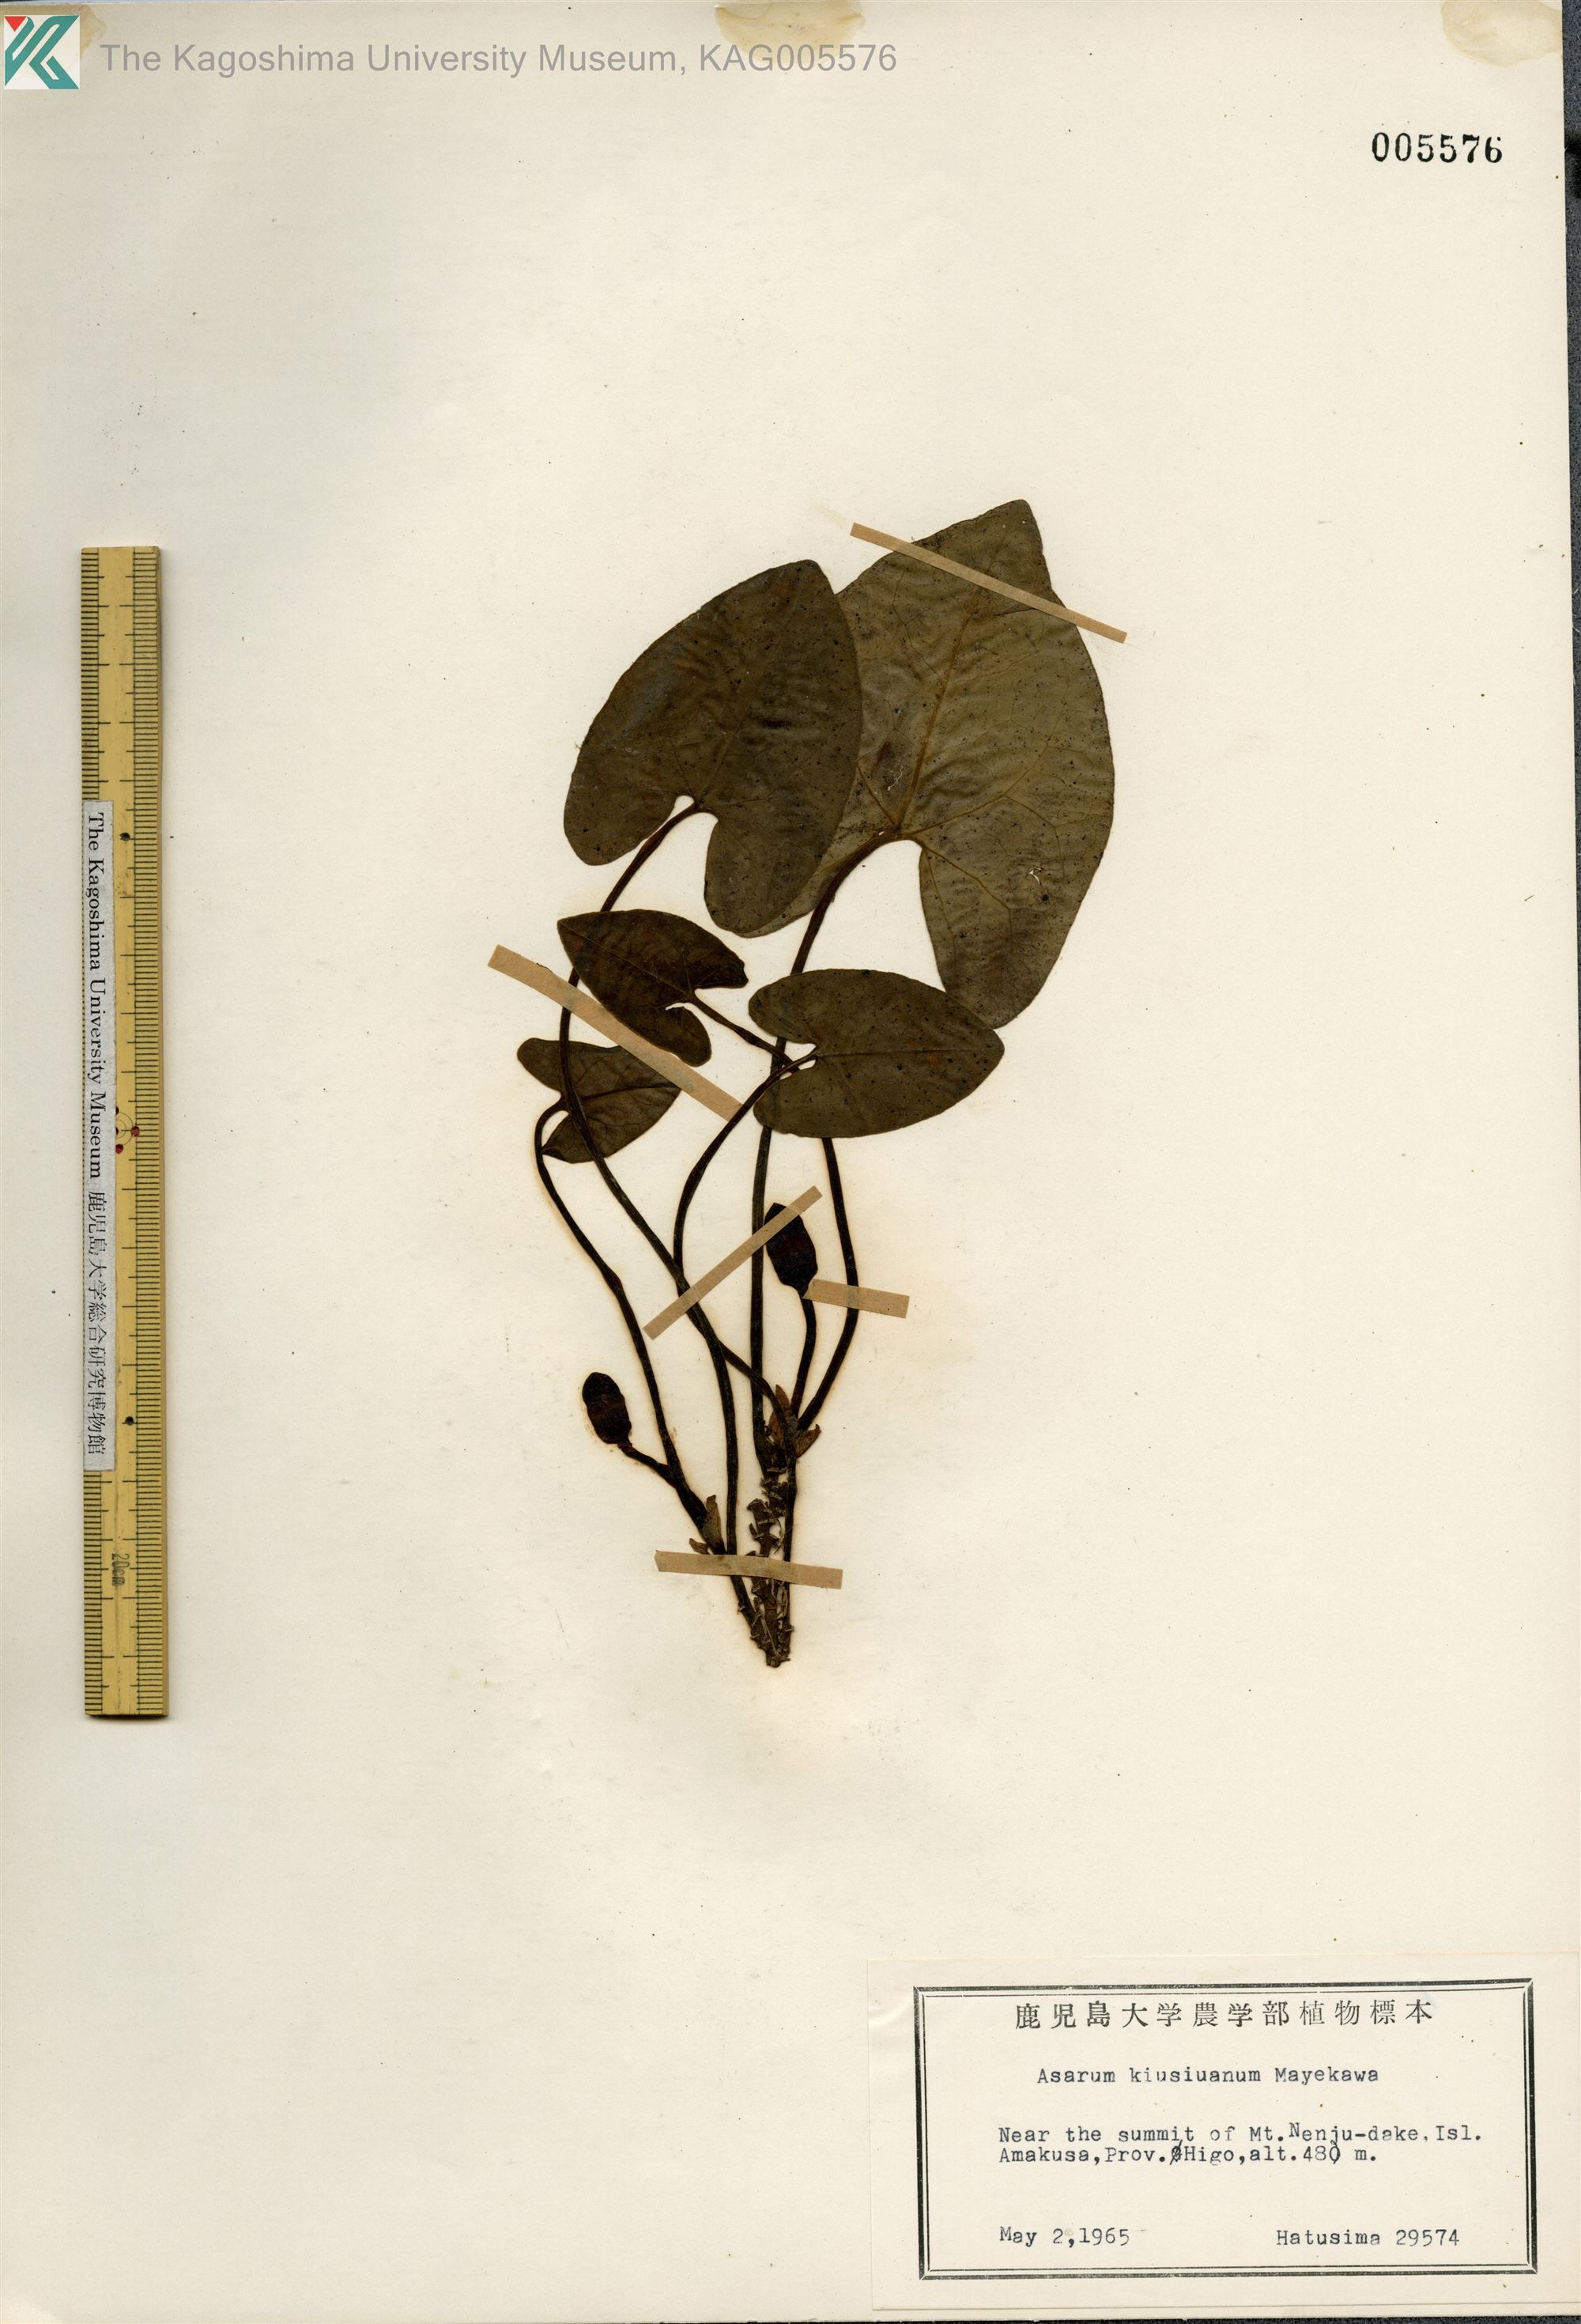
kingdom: Plantae
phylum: Tracheophyta
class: Magnoliopsida
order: Piperales
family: Aristolochiaceae
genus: Asarum
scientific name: Asarum kiusianum
